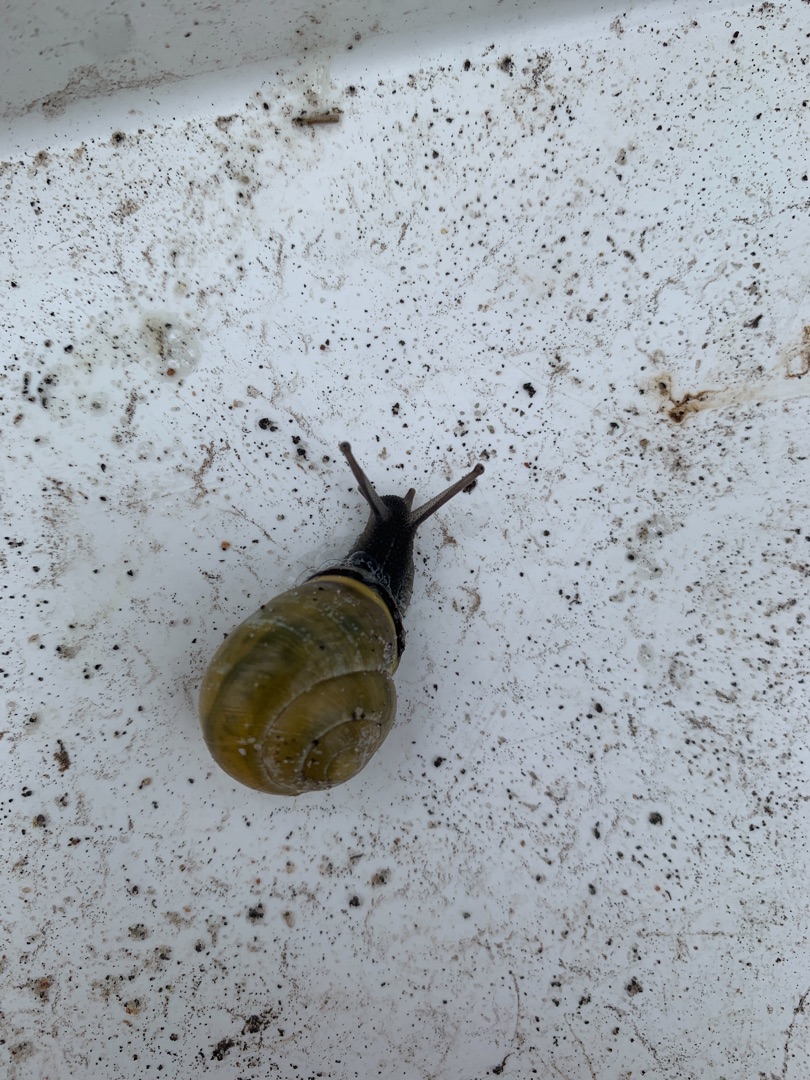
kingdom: Animalia
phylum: Mollusca
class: Gastropoda
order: Stylommatophora
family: Helicidae
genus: Cepaea
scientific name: Cepaea nemoralis
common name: Lundsnegl
